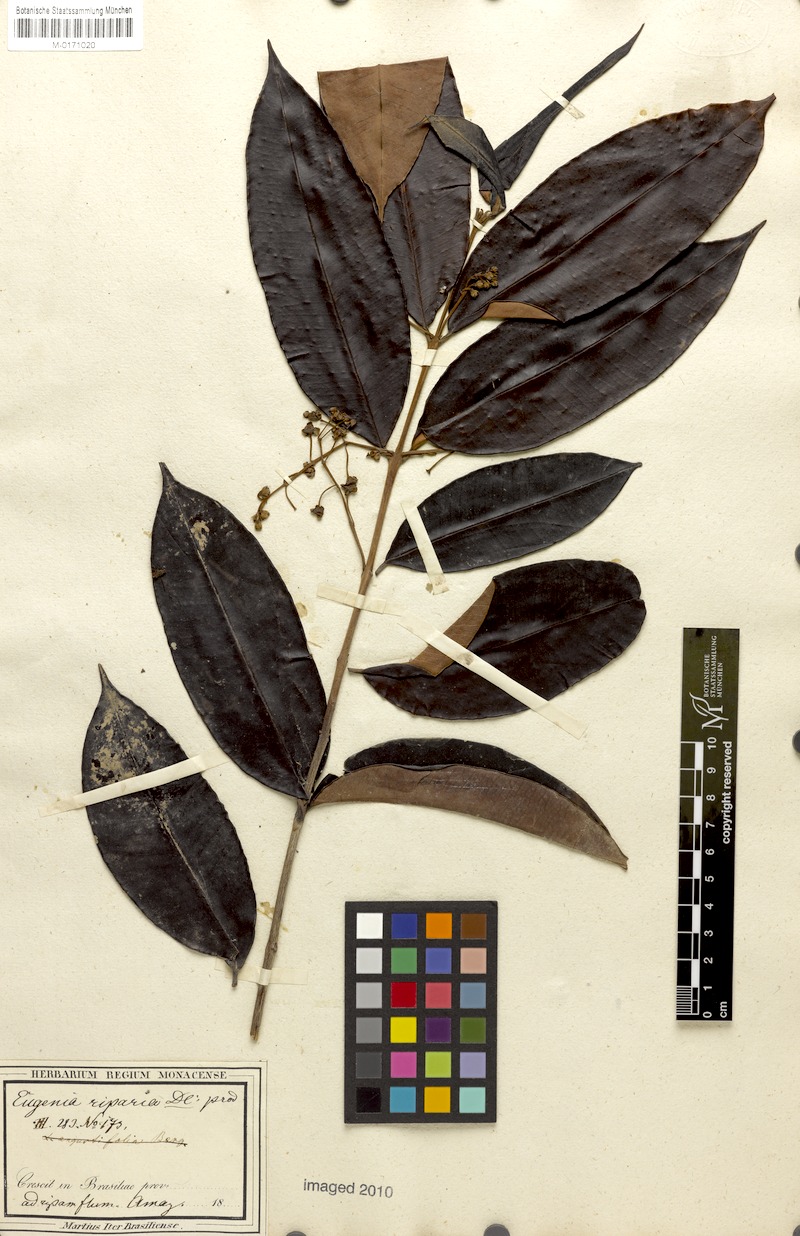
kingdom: Plantae
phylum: Tracheophyta
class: Magnoliopsida
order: Myrtales
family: Myrtaceae
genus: Eugenia
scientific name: Eugenia patens
